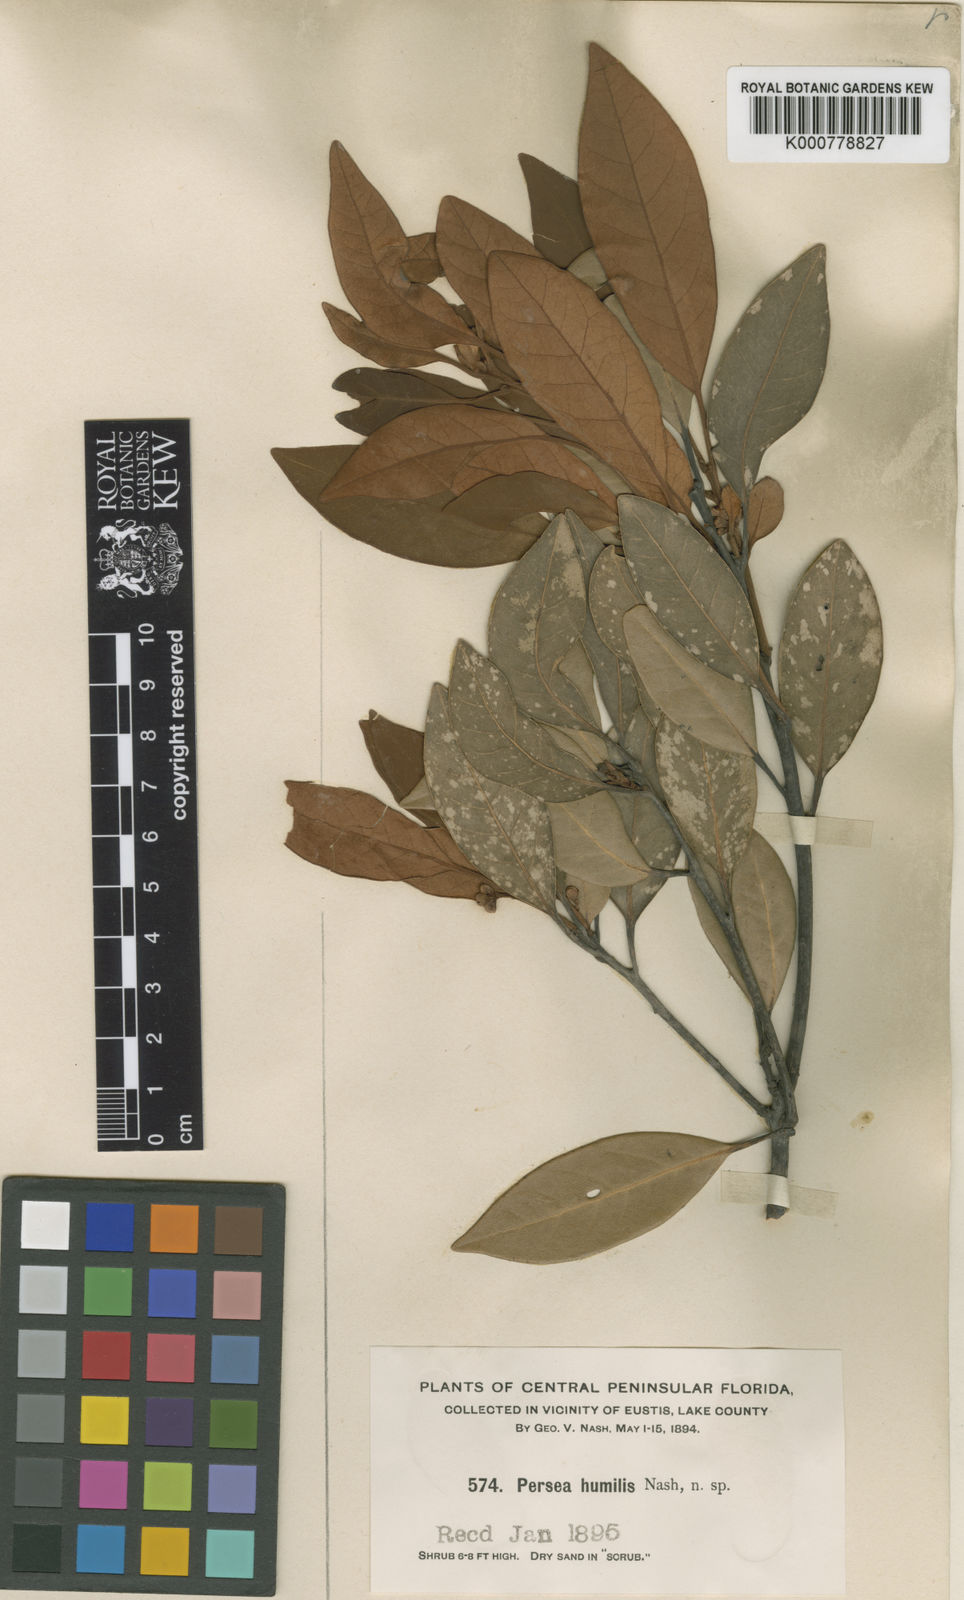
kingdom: Plantae
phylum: Tracheophyta
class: Magnoliopsida
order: Laurales
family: Lauraceae
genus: Persea
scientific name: Persea humilis
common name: Silkbay
